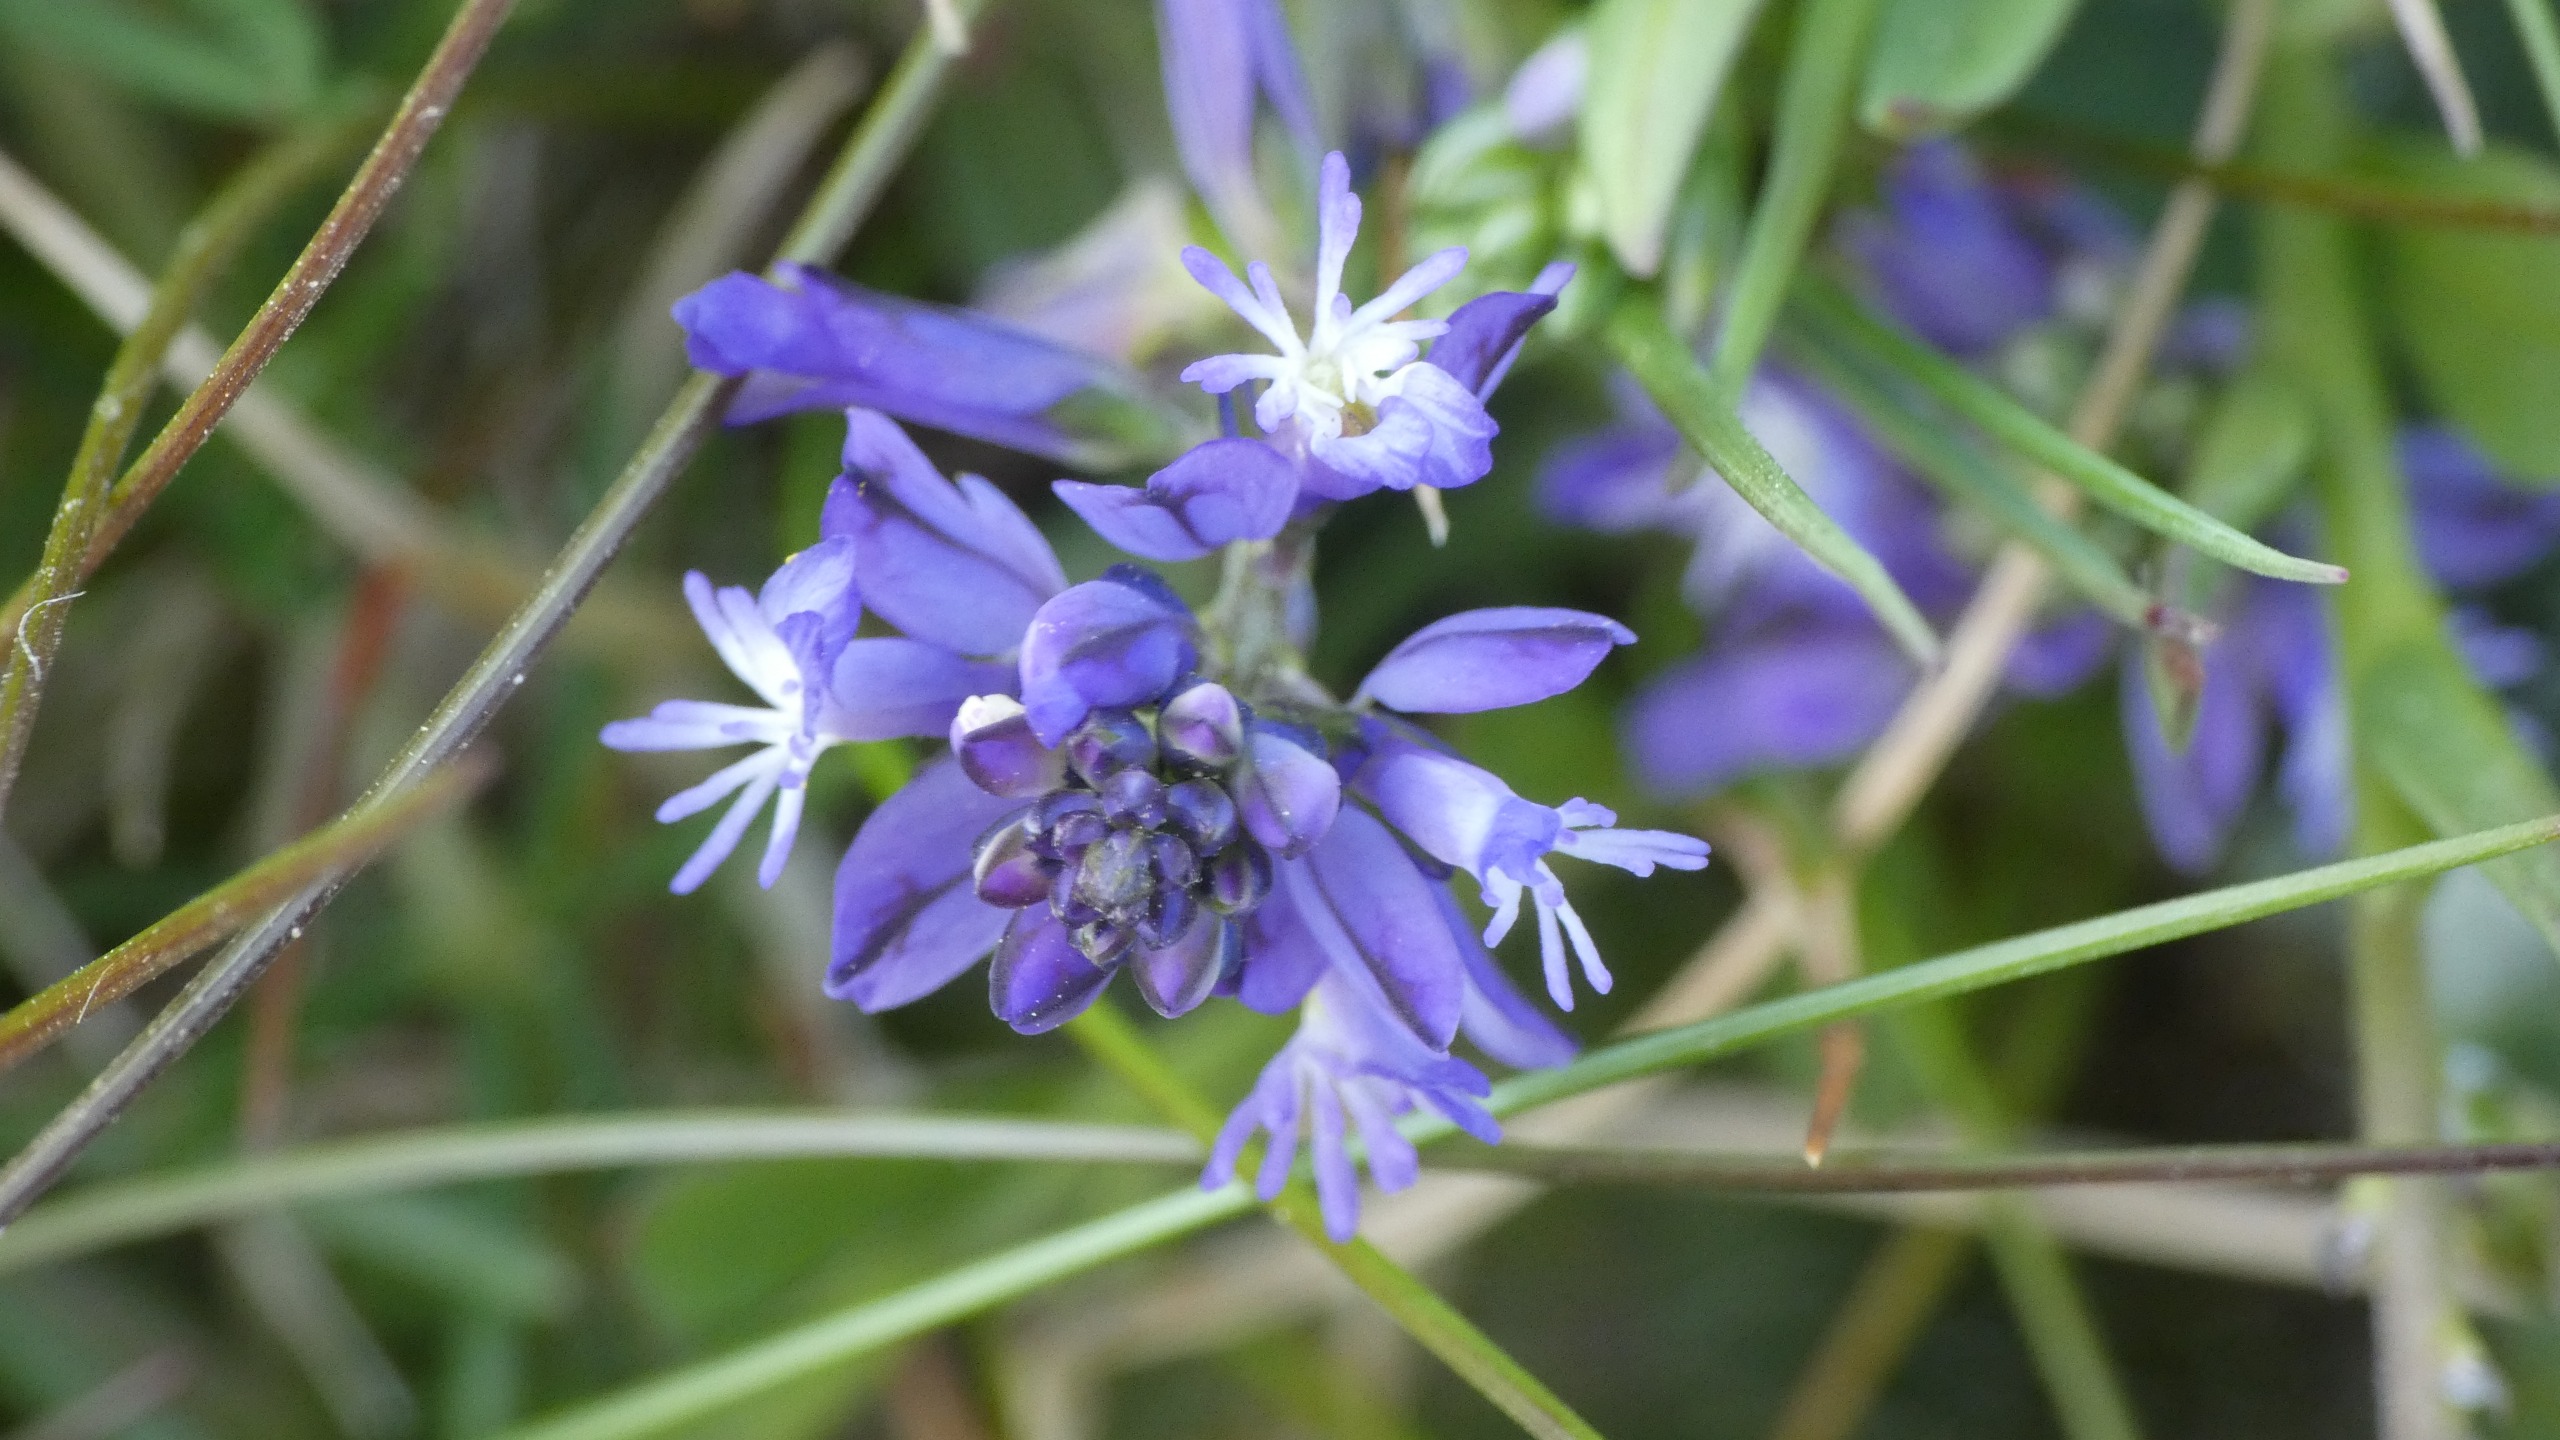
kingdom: Plantae
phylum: Tracheophyta
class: Magnoliopsida
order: Fabales
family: Polygalaceae
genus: Polygala
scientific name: Polygala vulgaris
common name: Almindelig mælkeurt
